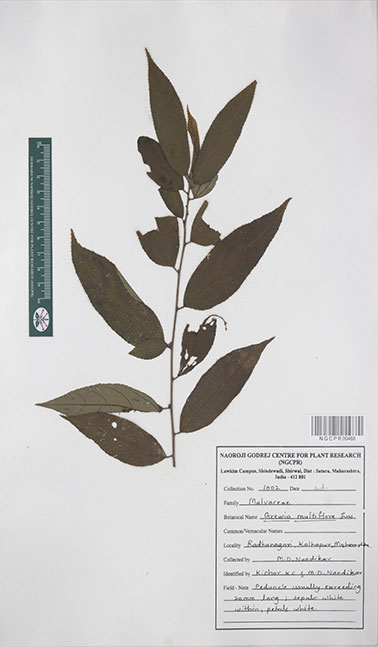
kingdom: Plantae
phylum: Tracheophyta
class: Magnoliopsida
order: Malvales
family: Malvaceae
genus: Grewia
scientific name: Grewia multiflora
